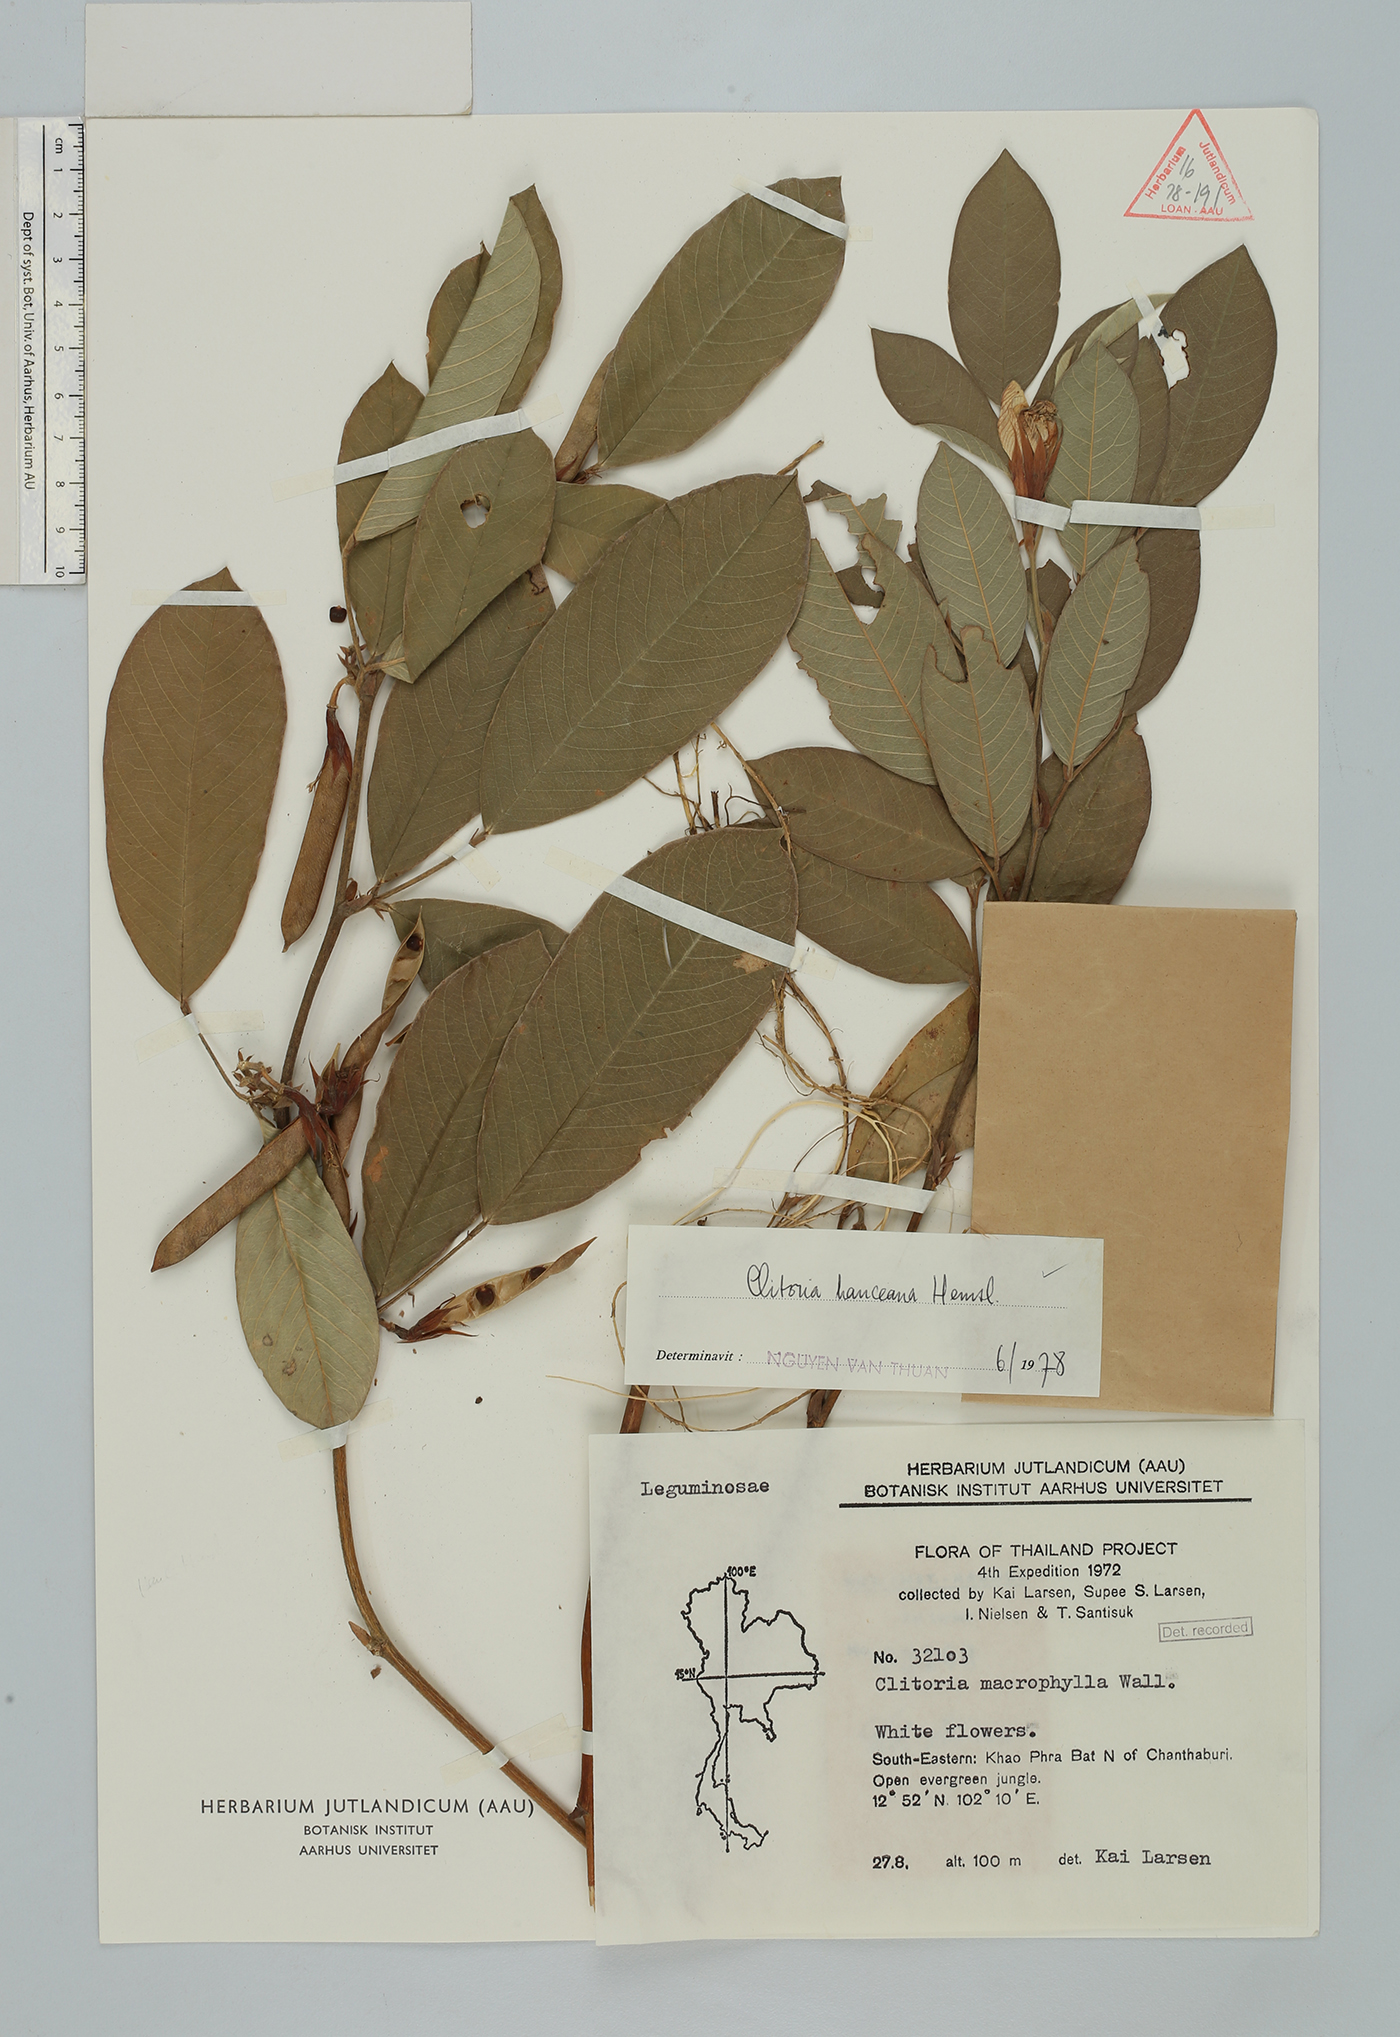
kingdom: Plantae
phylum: Tracheophyta
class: Magnoliopsida
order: Fabales
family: Fabaceae
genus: Clitoria
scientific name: Clitoria hanceana
